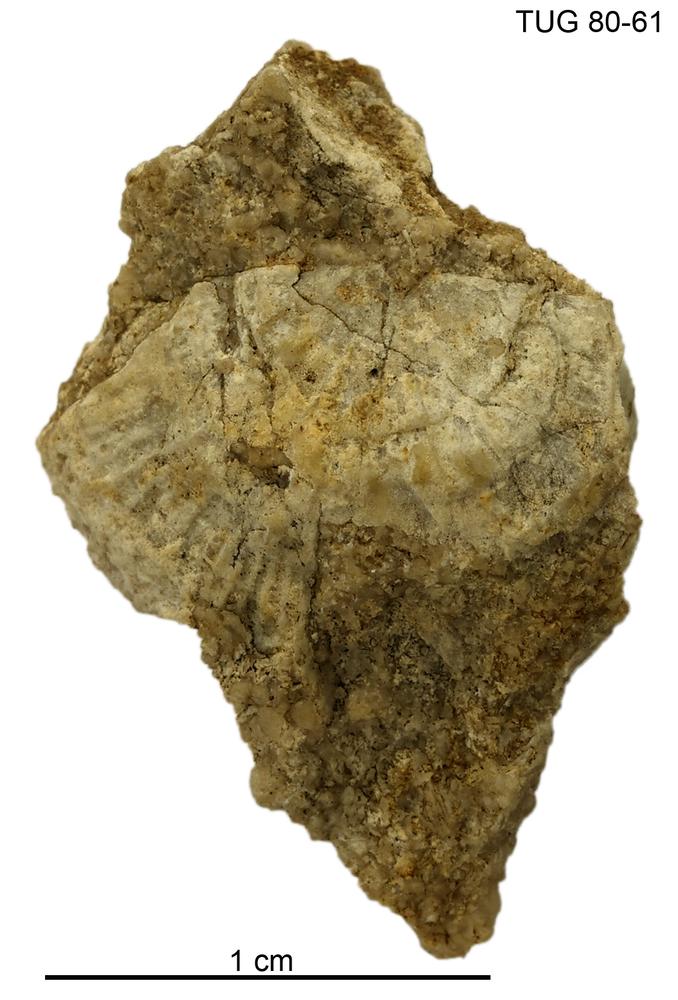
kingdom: Animalia
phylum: Brachiopoda
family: Strophomenidae
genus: Holtedahlina
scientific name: Holtedahlina
